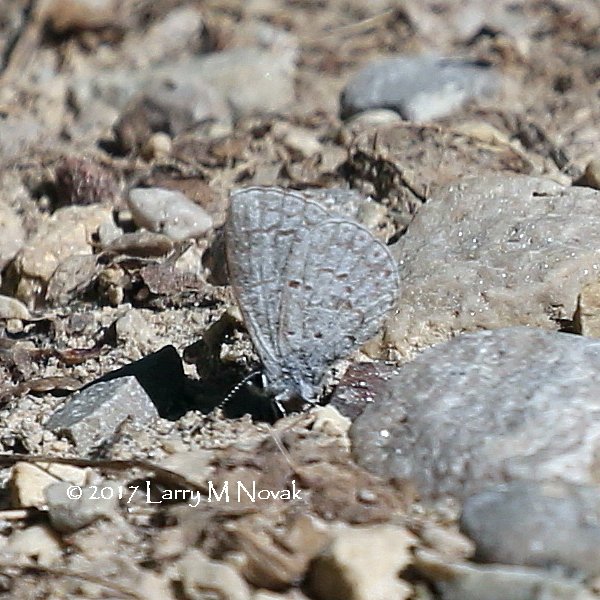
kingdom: Animalia
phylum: Arthropoda
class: Insecta
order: Lepidoptera
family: Lycaenidae
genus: Celastrina
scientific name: Celastrina lucia
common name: Northern Spring Azure
